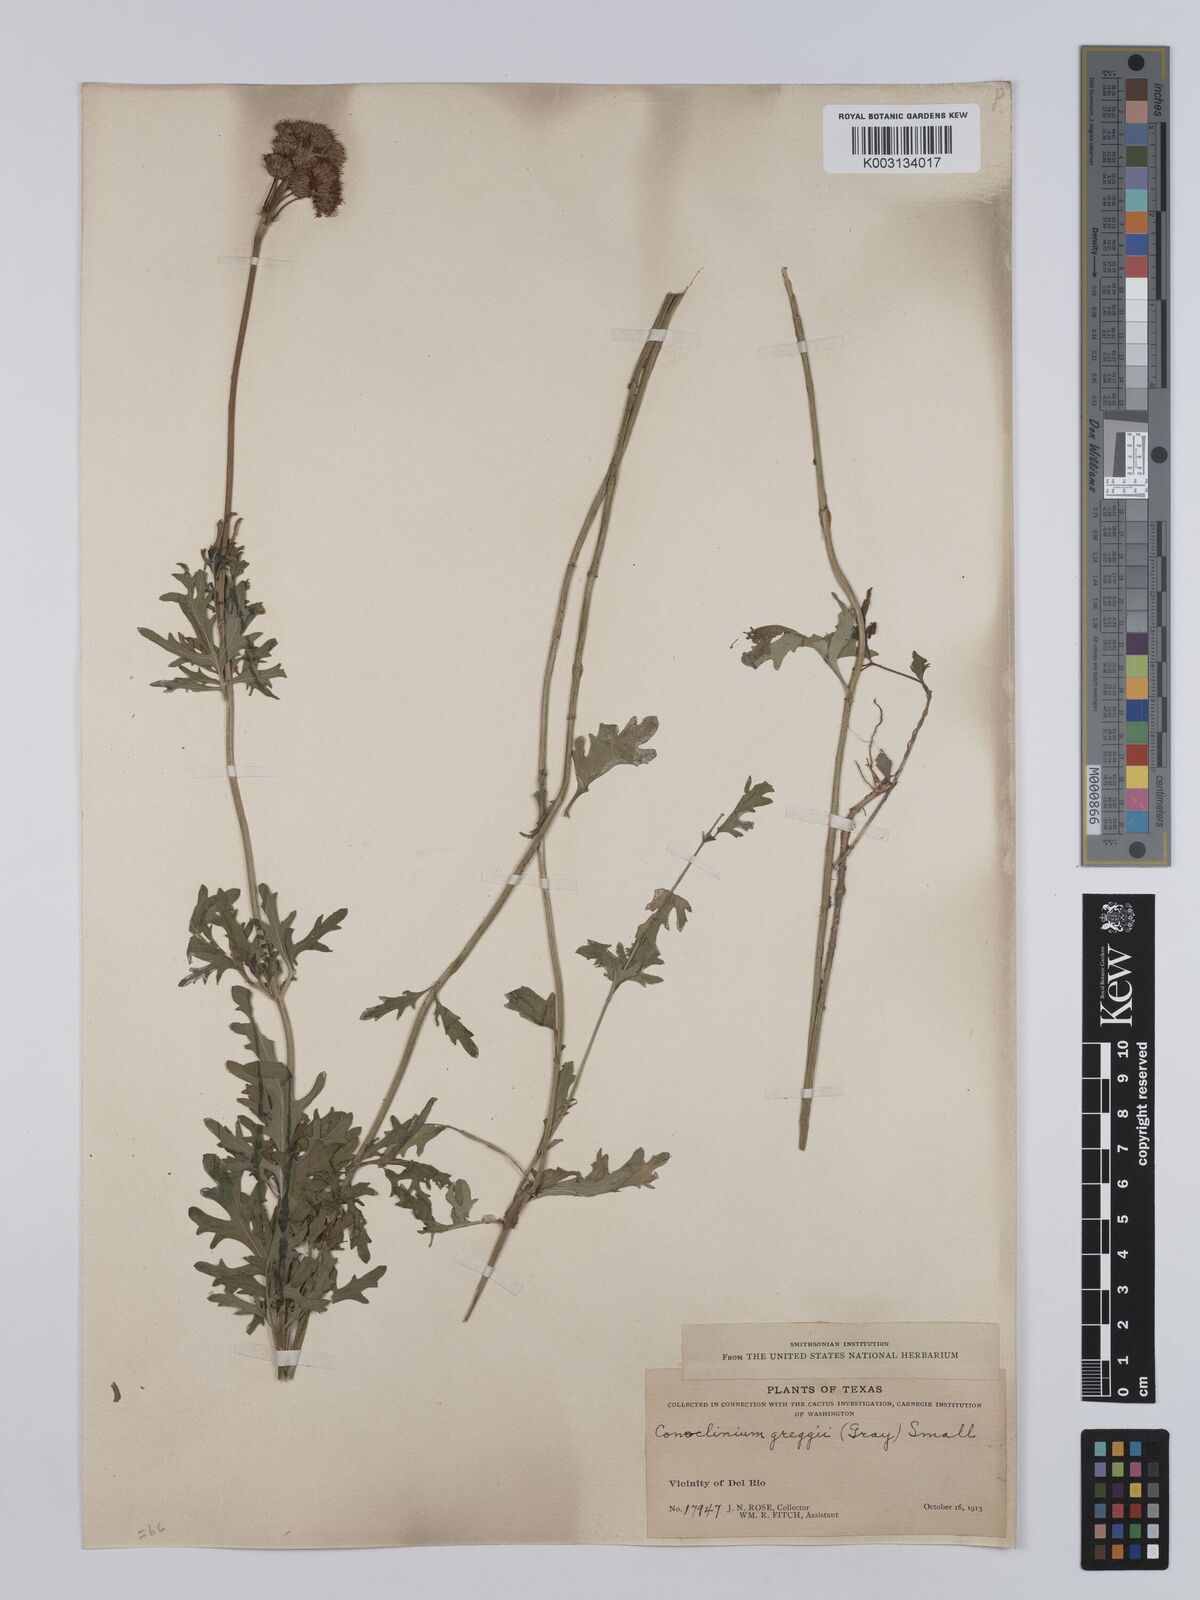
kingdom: Plantae
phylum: Tracheophyta
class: Magnoliopsida
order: Asterales
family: Asteraceae
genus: Conoclinium
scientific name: Conoclinium dissectum
